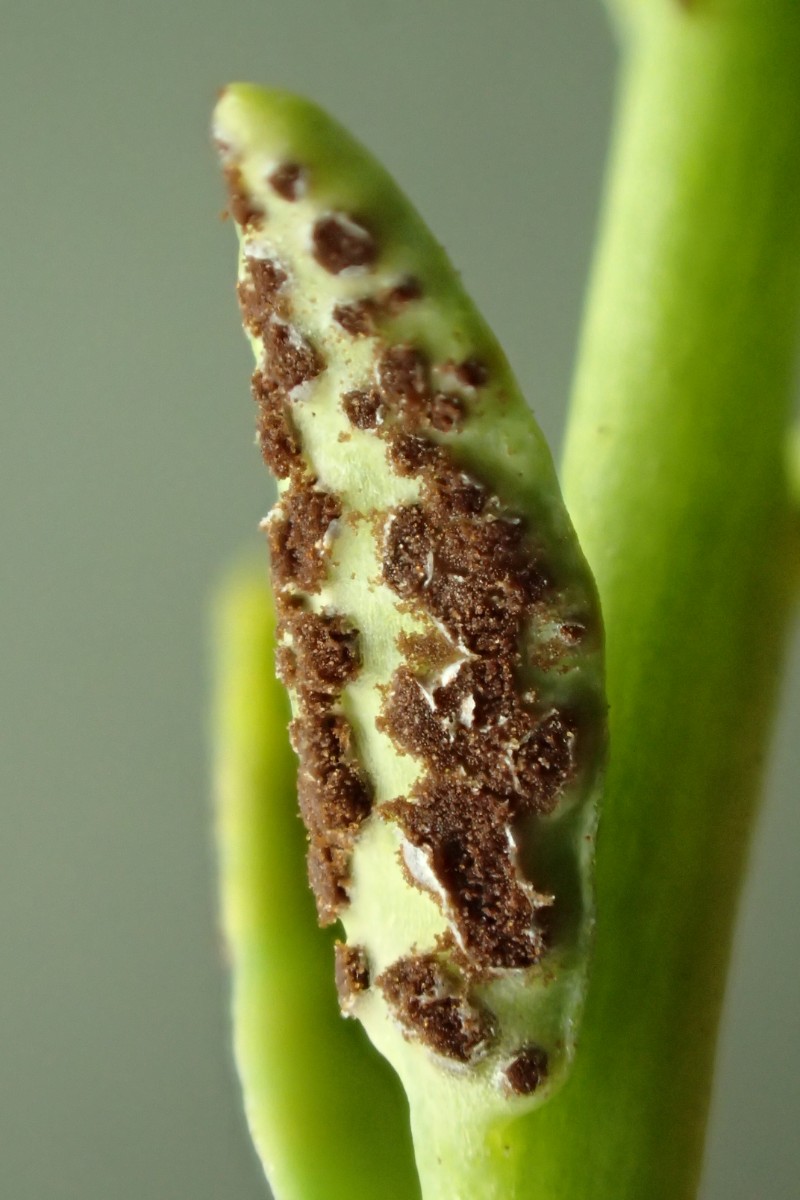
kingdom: Fungi
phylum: Basidiomycota
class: Pucciniomycetes
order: Pucciniales
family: Pucciniaceae
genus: Uromyces
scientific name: Uromyces scutellatus
